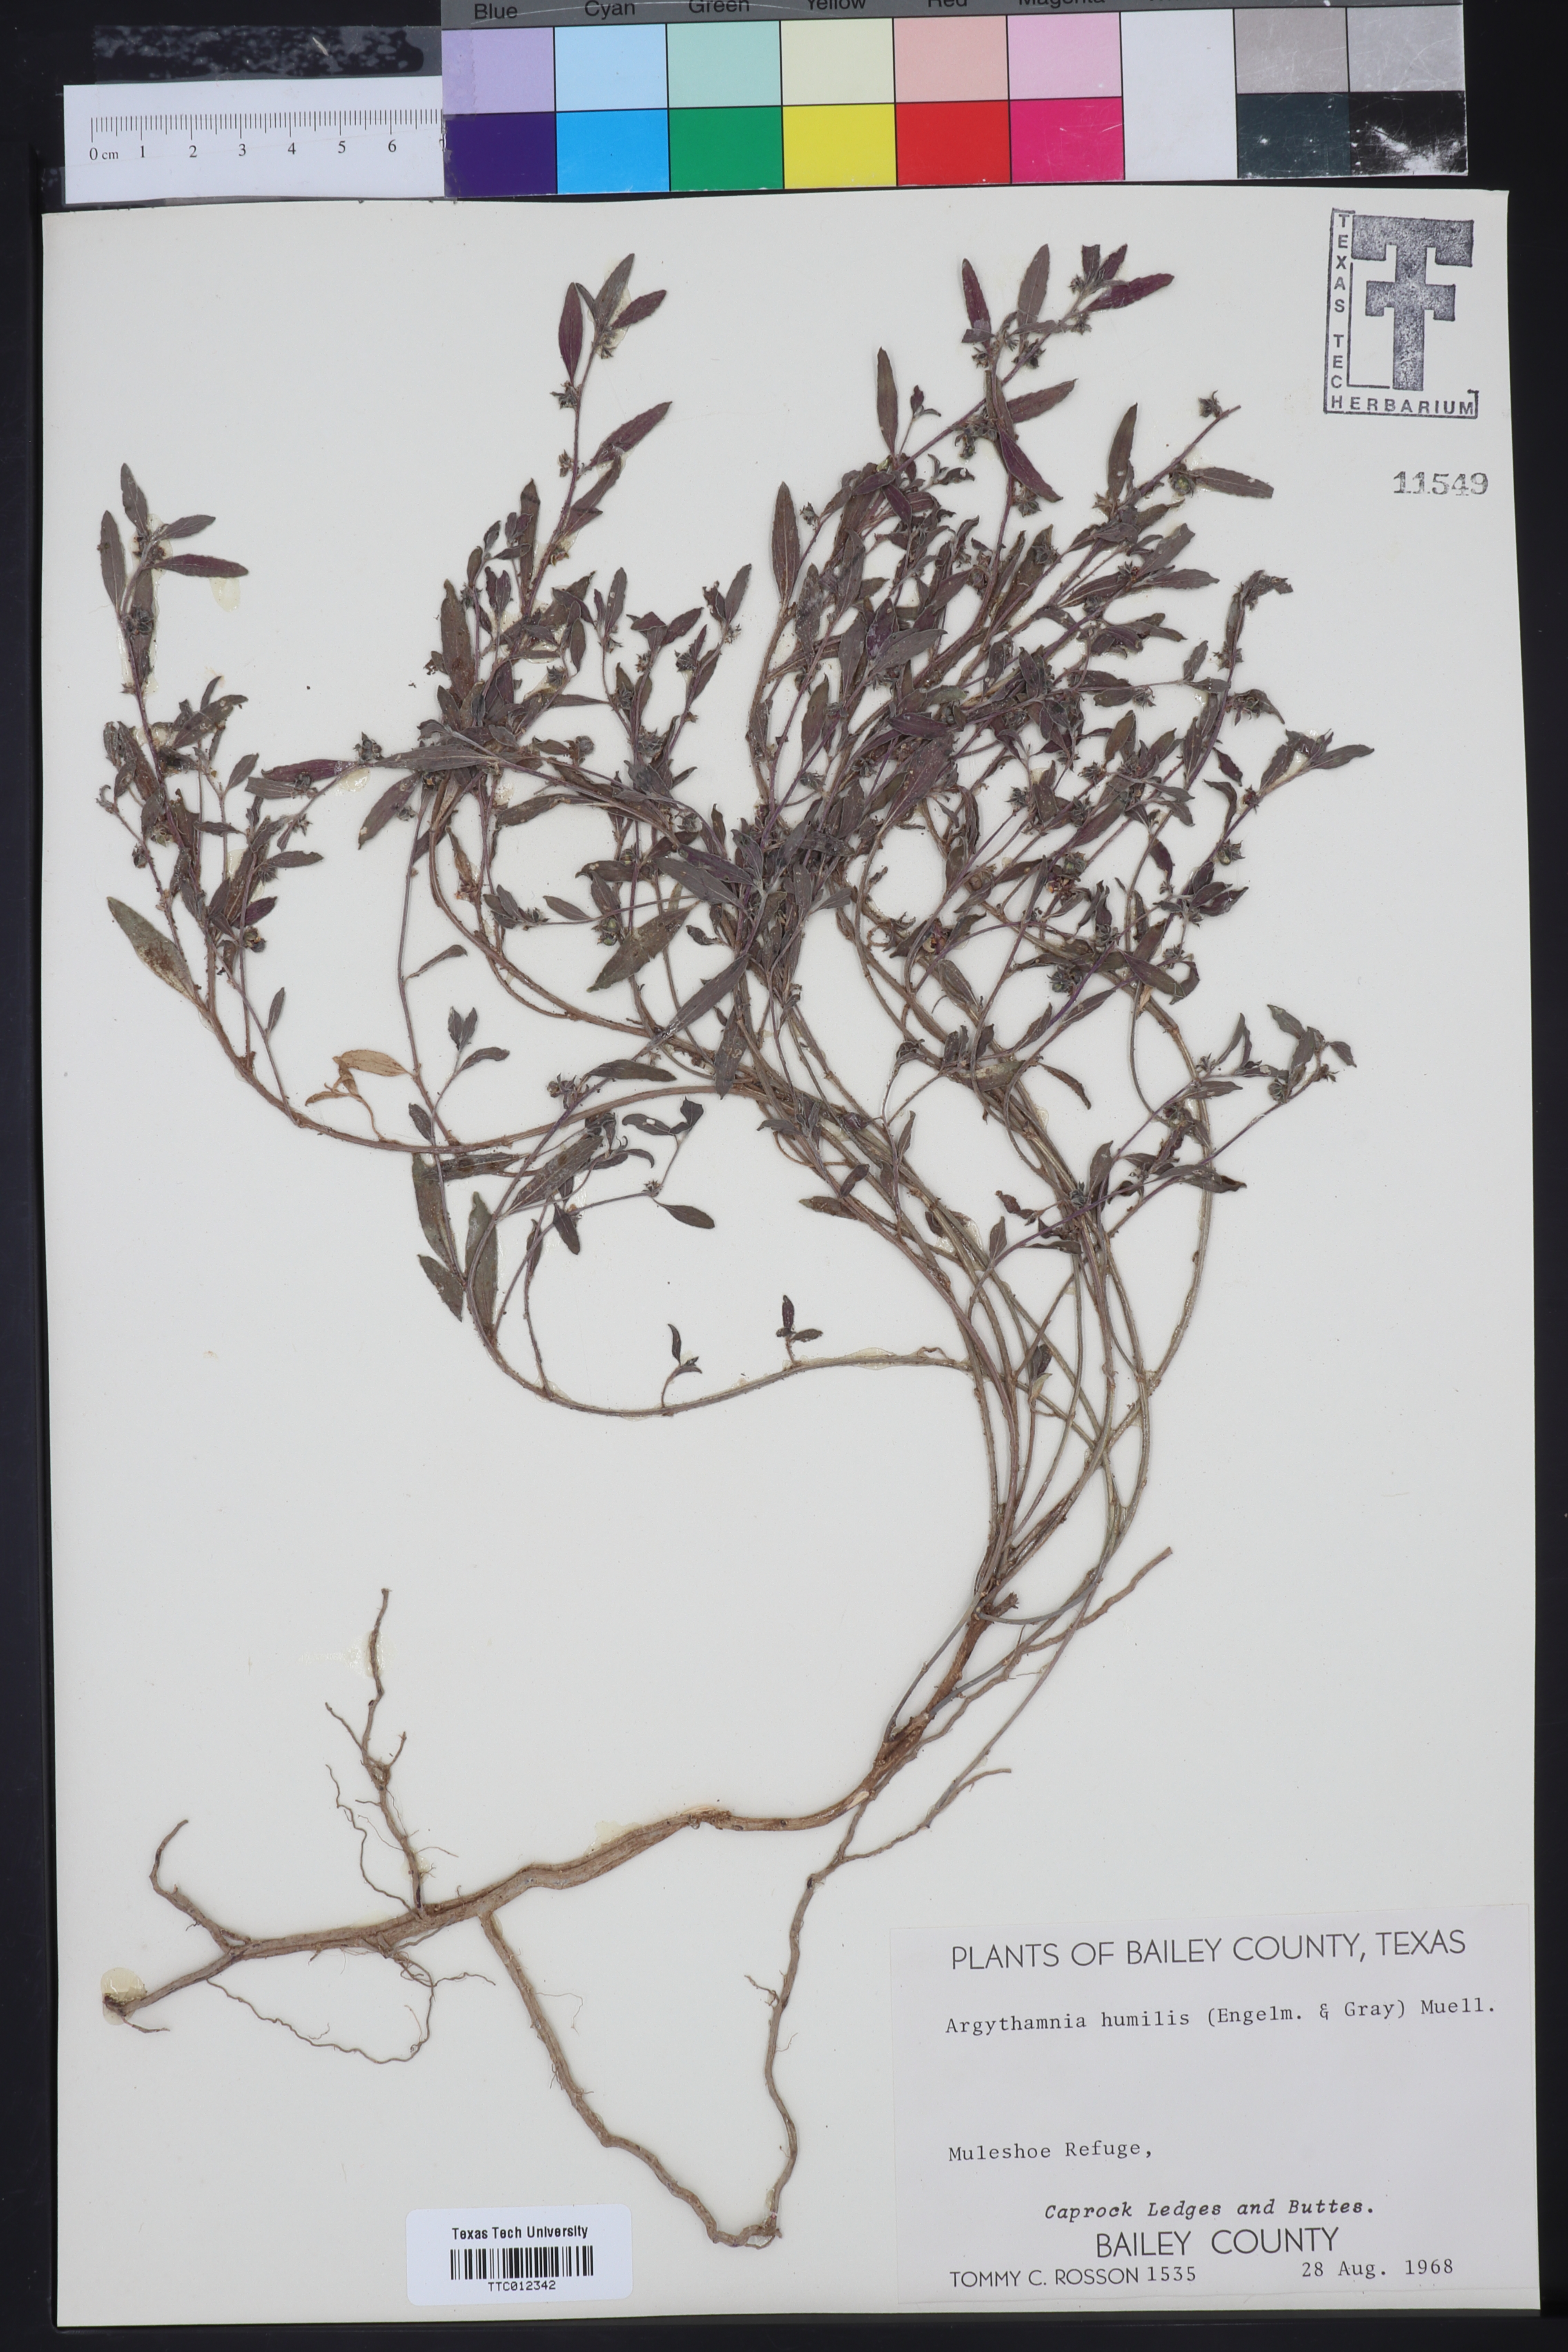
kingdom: Plantae
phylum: Tracheophyta
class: Magnoliopsida
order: Malpighiales
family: Euphorbiaceae
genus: Ditaxis
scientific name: Ditaxis humilis
